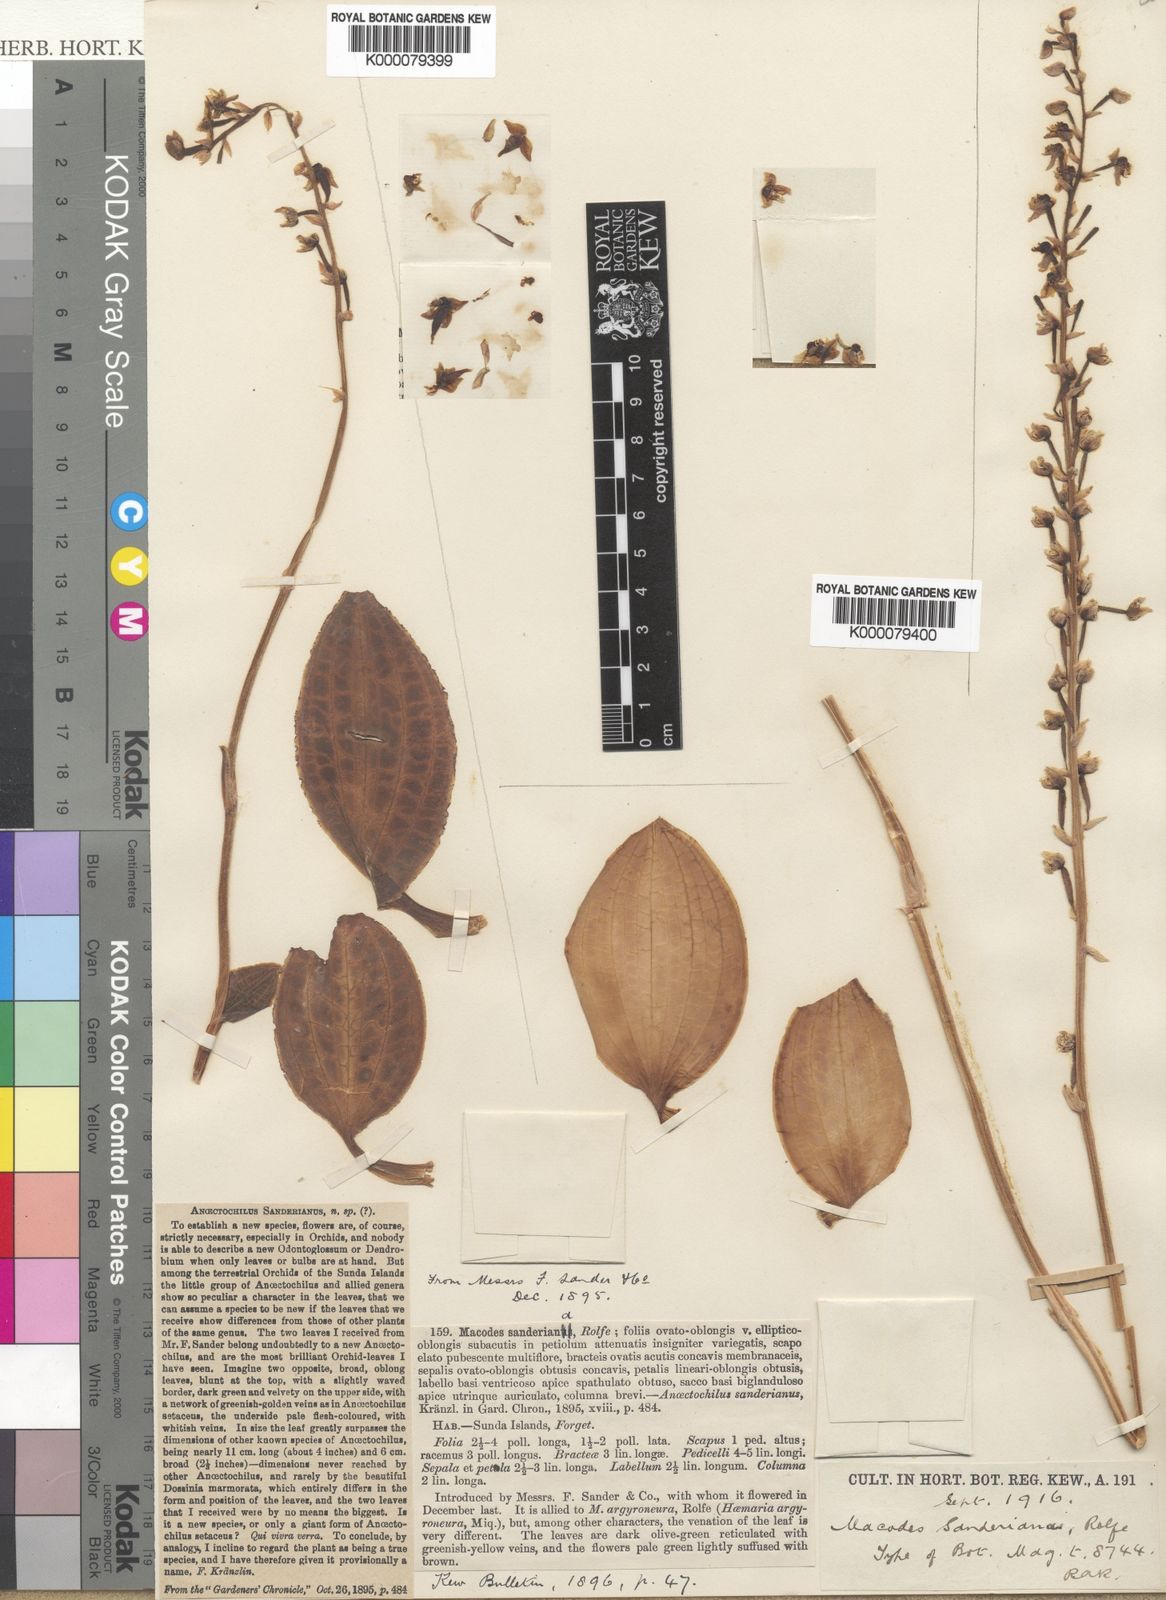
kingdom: Plantae
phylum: Tracheophyta
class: Liliopsida
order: Asparagales
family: Orchidaceae
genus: Macodes
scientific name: Macodes sanderiana
